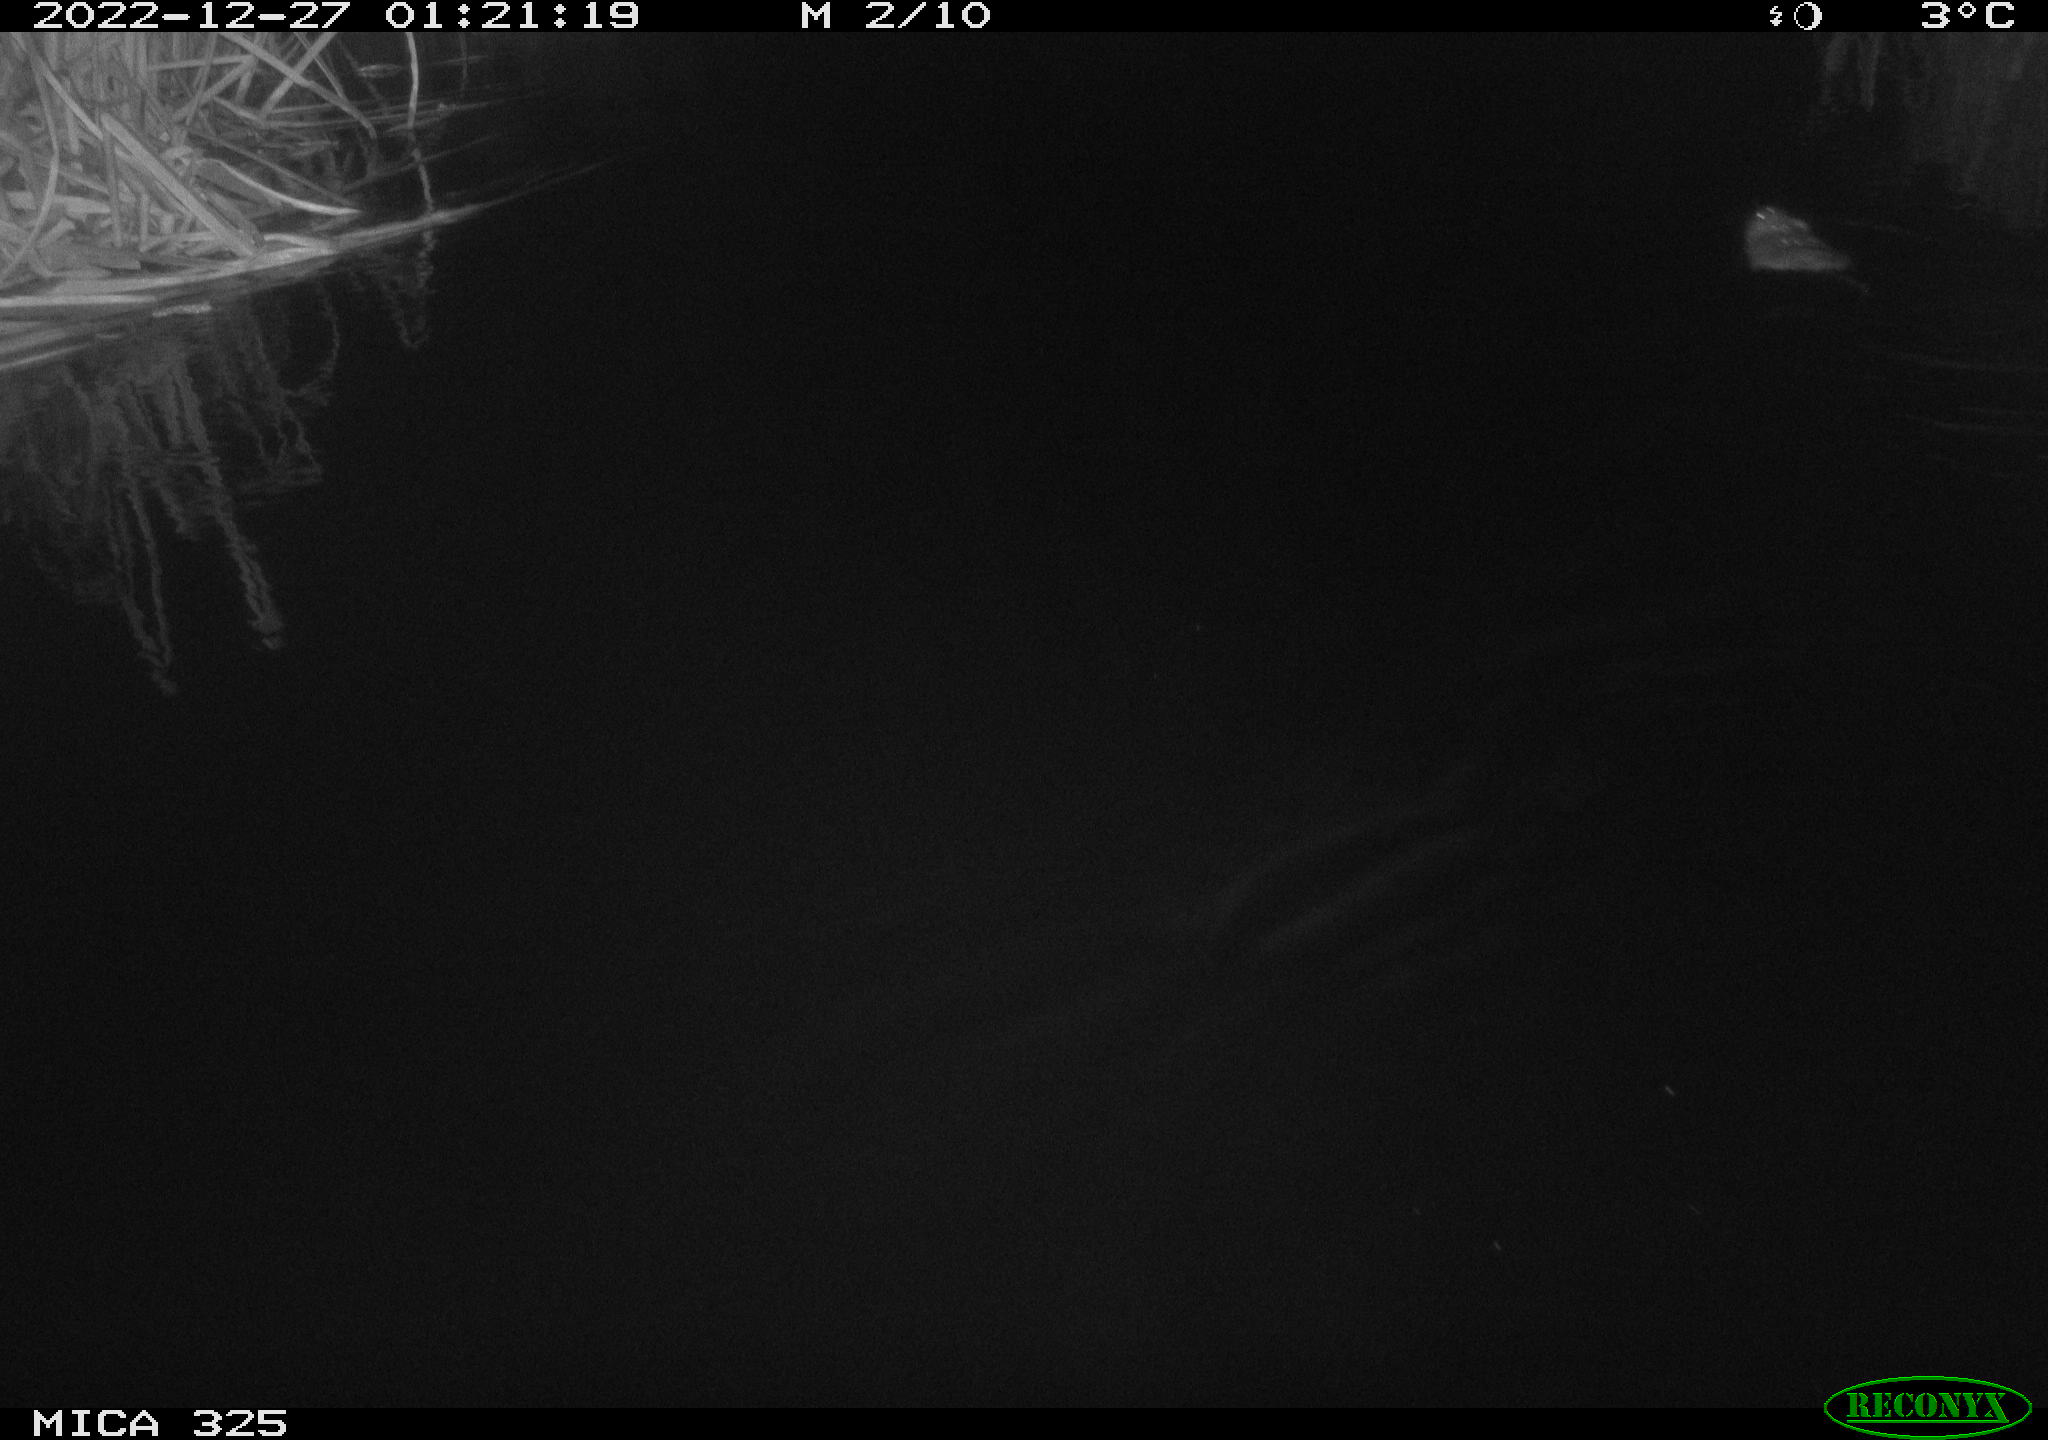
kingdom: Animalia
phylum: Chordata
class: Mammalia
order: Rodentia
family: Cricetidae
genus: Ondatra
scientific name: Ondatra zibethicus
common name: Muskrat
